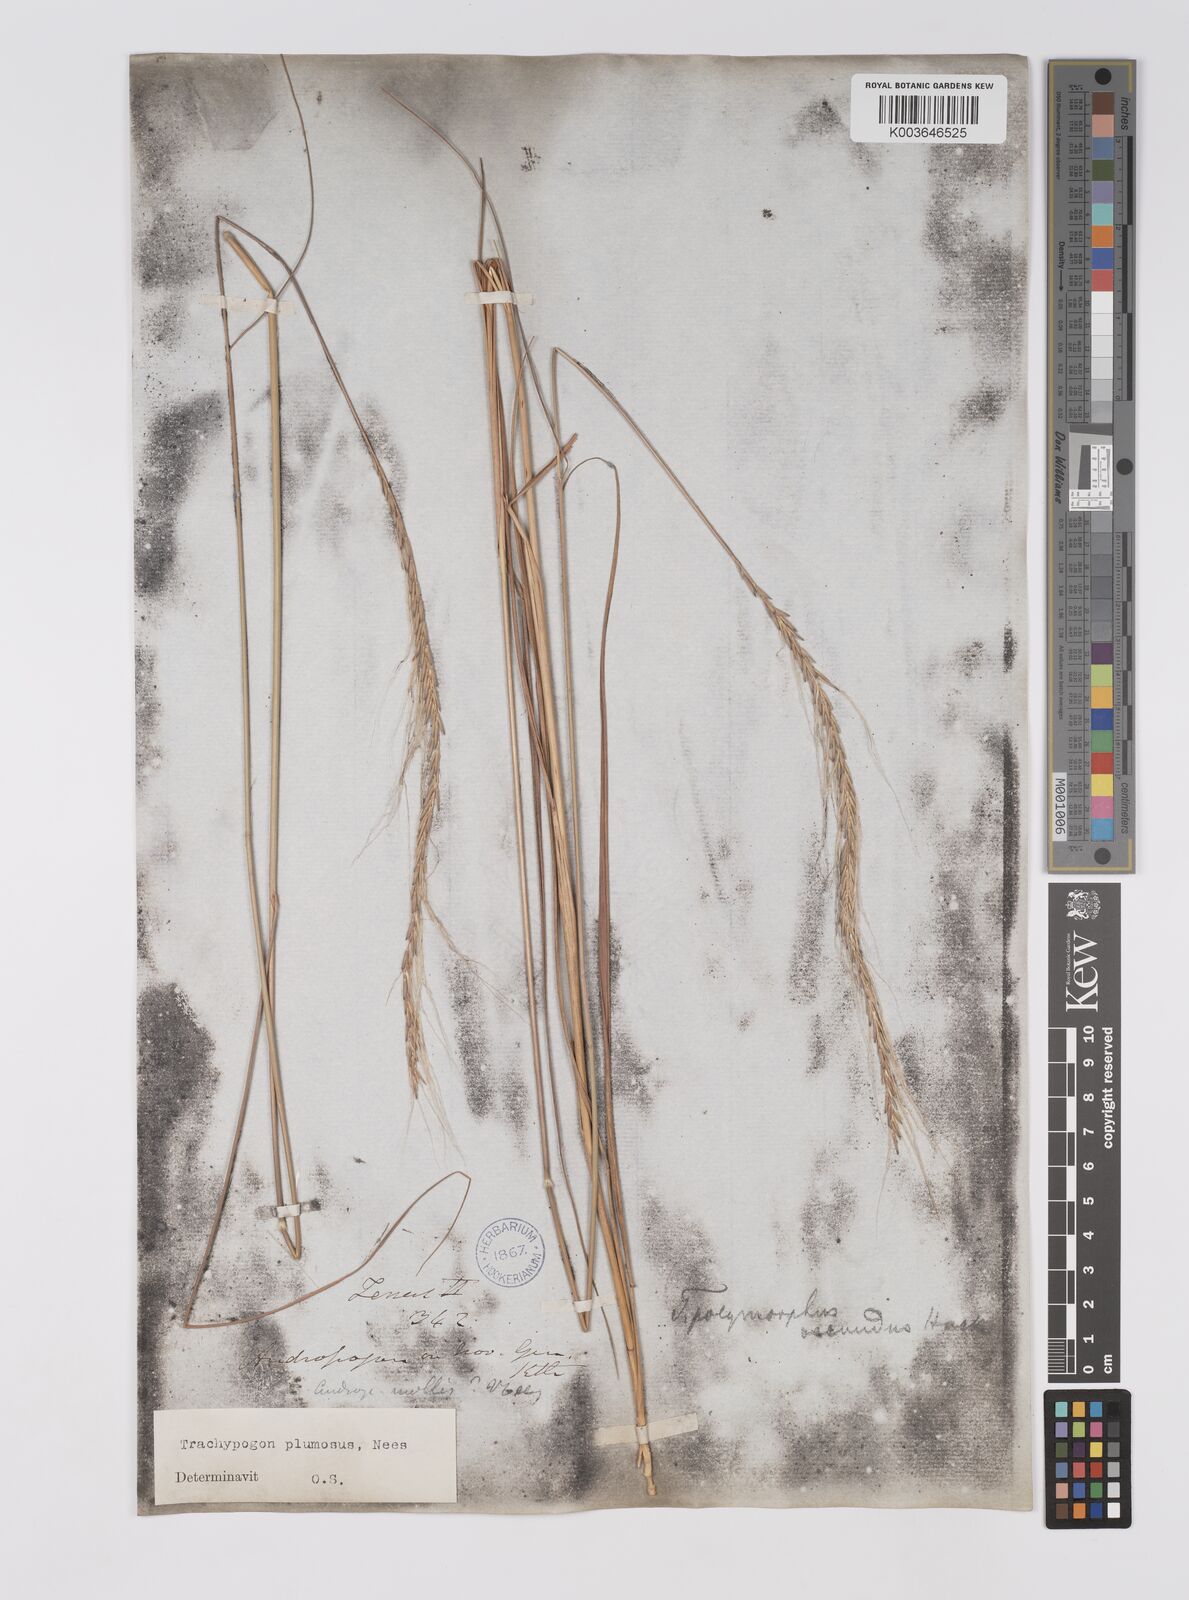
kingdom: Plantae
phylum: Tracheophyta
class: Liliopsida
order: Poales
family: Poaceae
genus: Trachypogon
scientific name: Trachypogon spicatus
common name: Crinkle-awn
